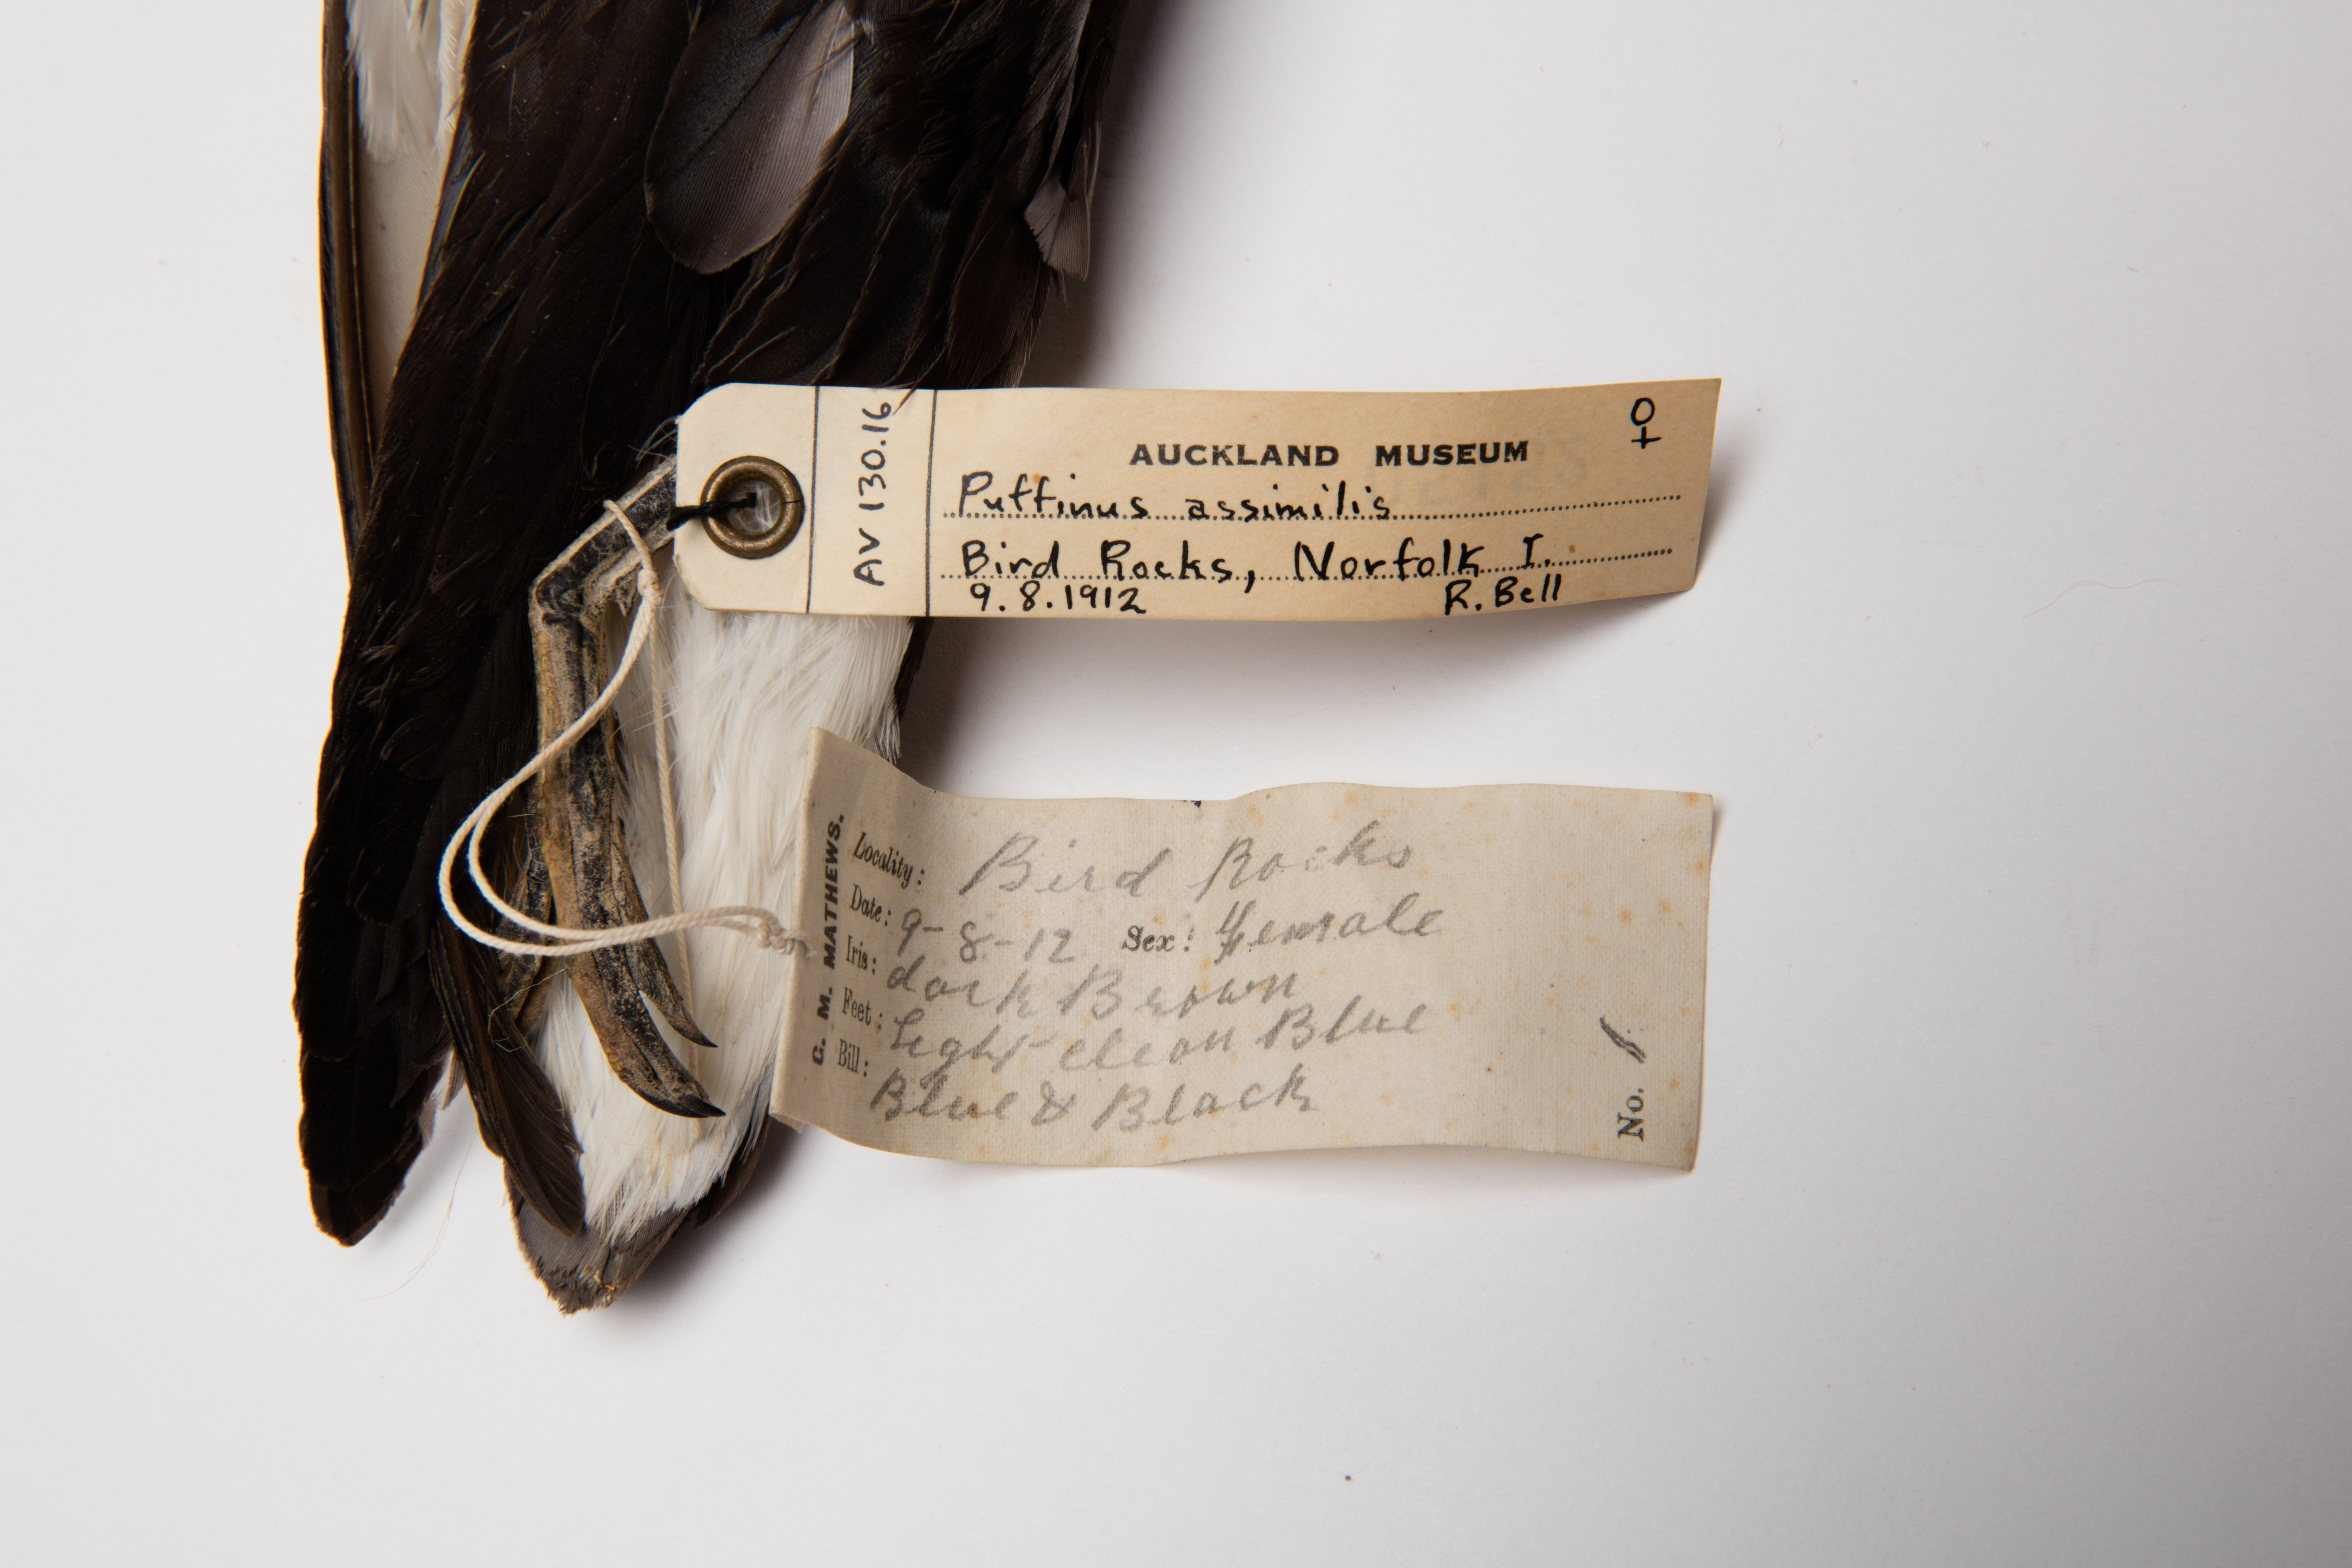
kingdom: Animalia
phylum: Chordata
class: Aves
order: Procellariiformes
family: Procellariidae
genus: Puffinus
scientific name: Puffinus assimilis
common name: Little shearwater
